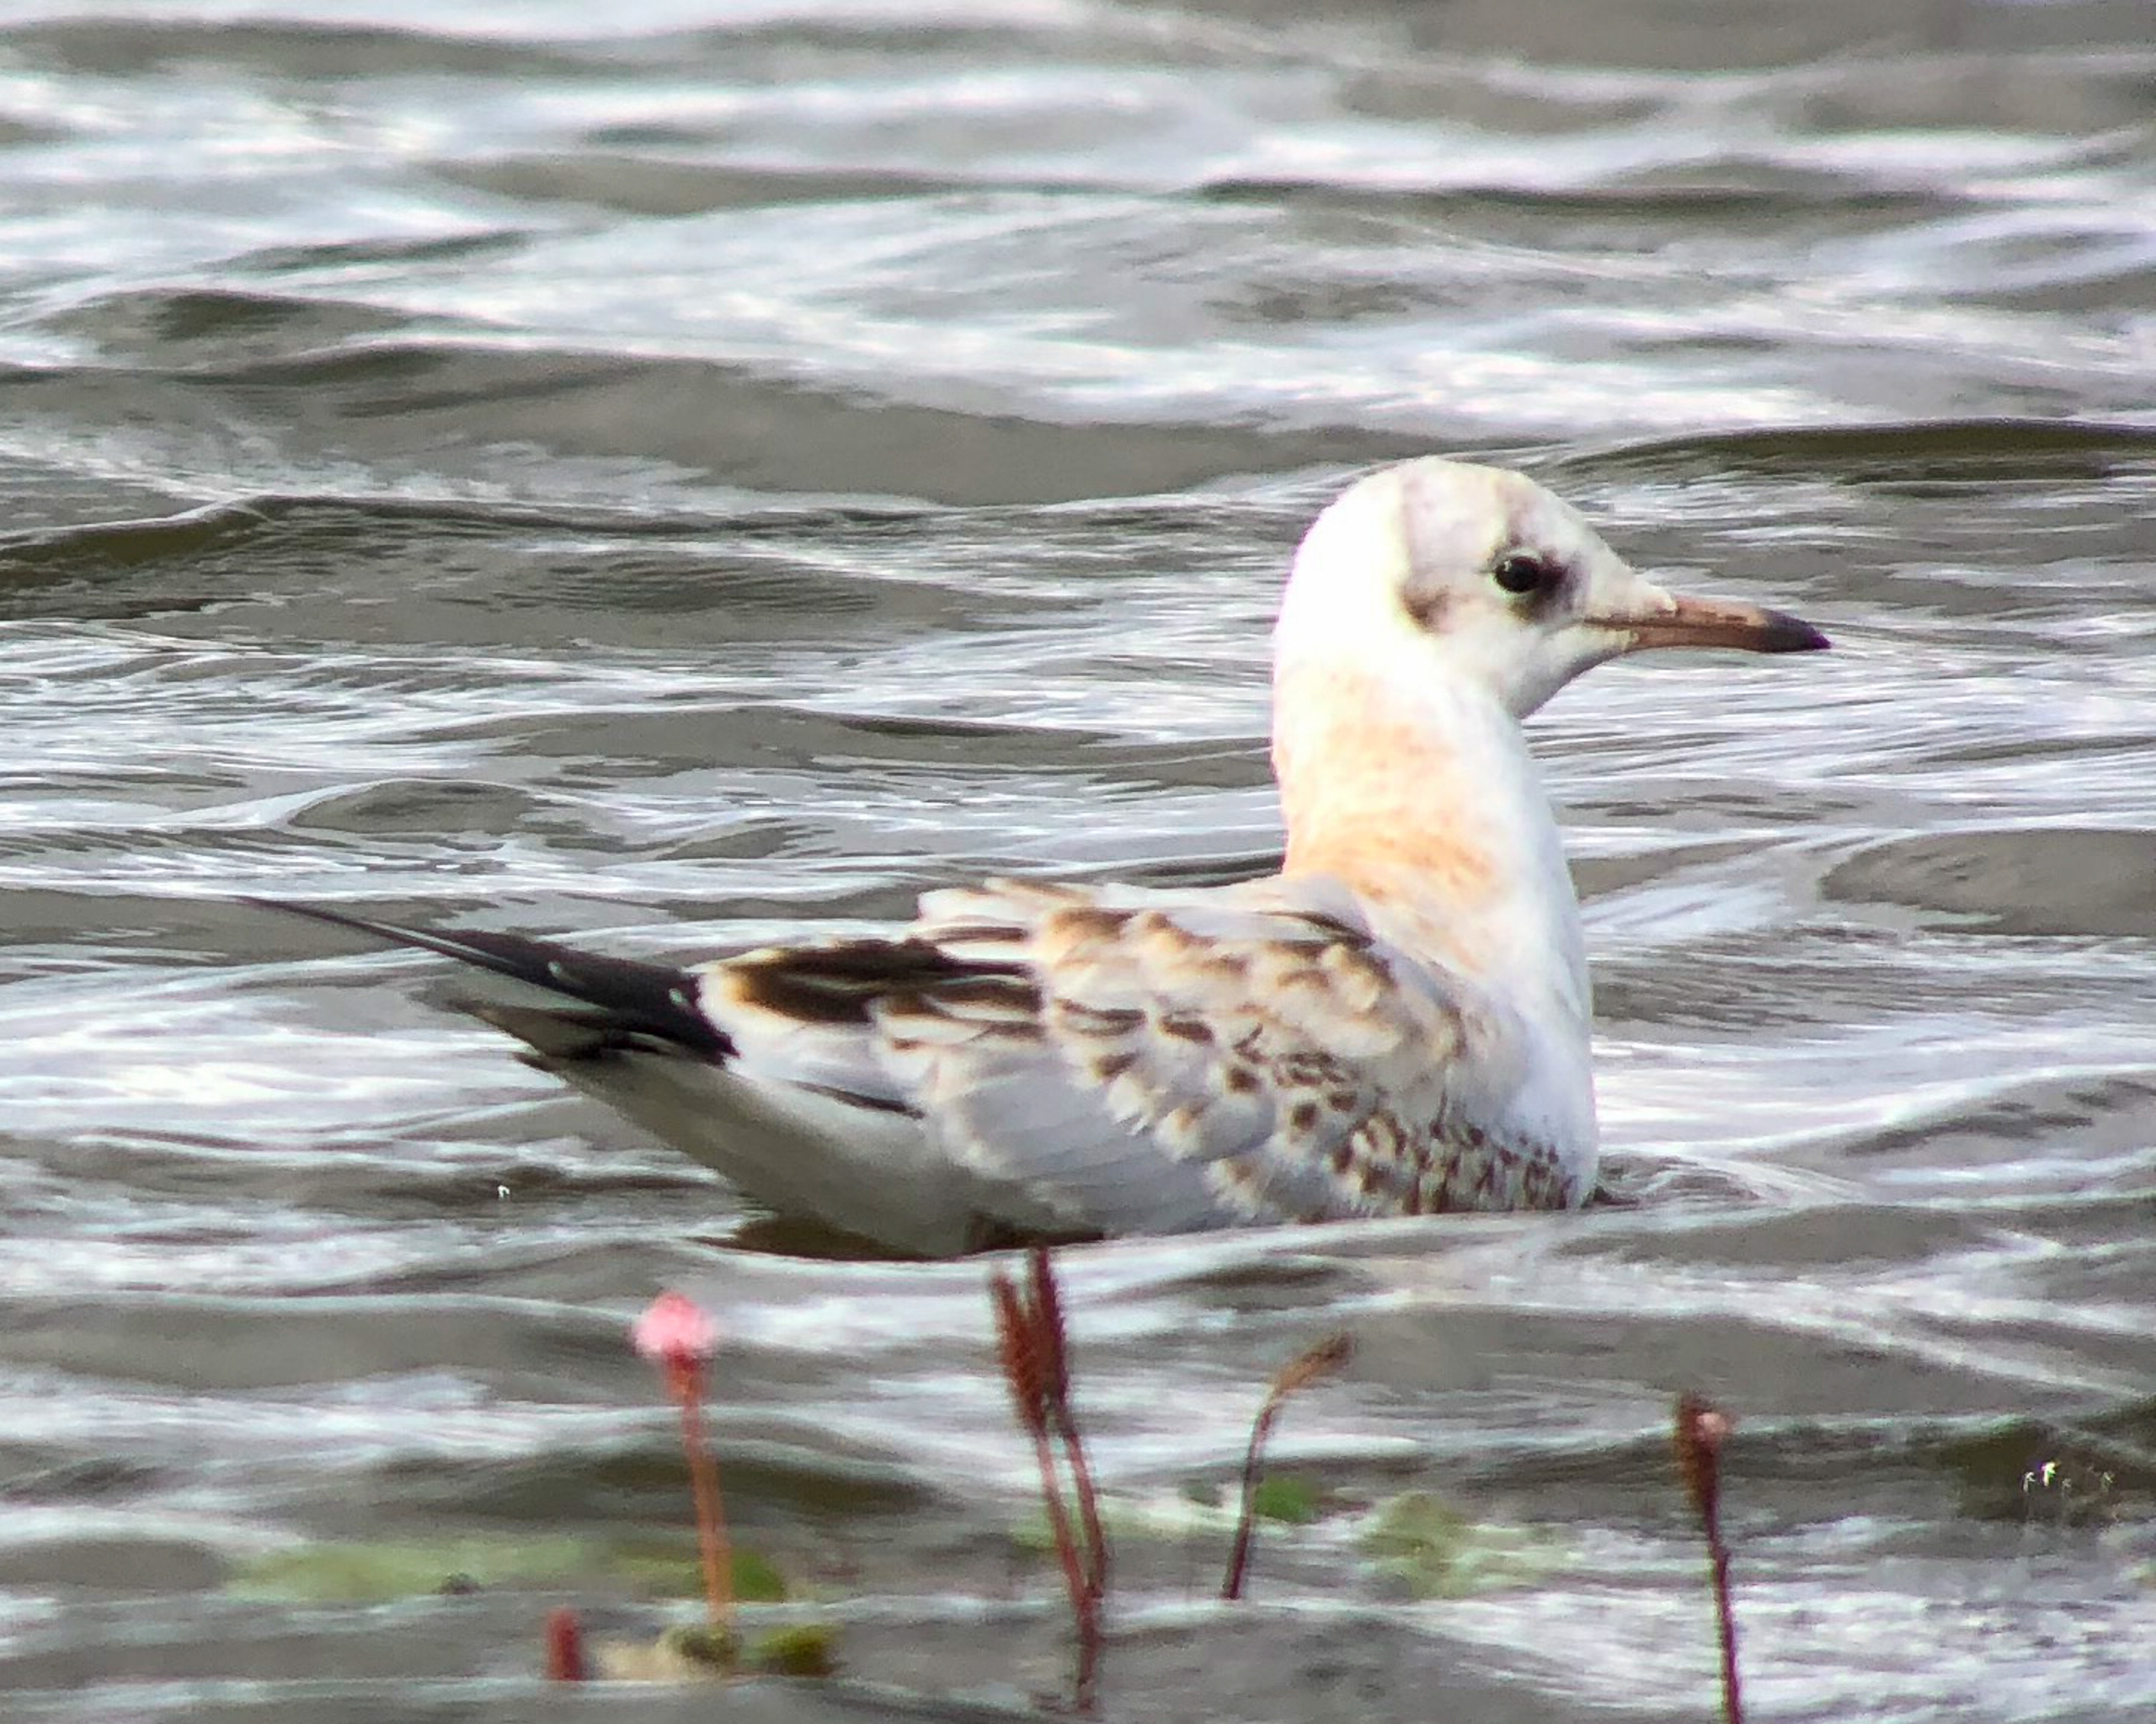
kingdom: Animalia
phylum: Chordata
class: Aves
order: Charadriiformes
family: Laridae
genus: Chroicocephalus
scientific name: Chroicocephalus ridibundus
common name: Hættemåge
